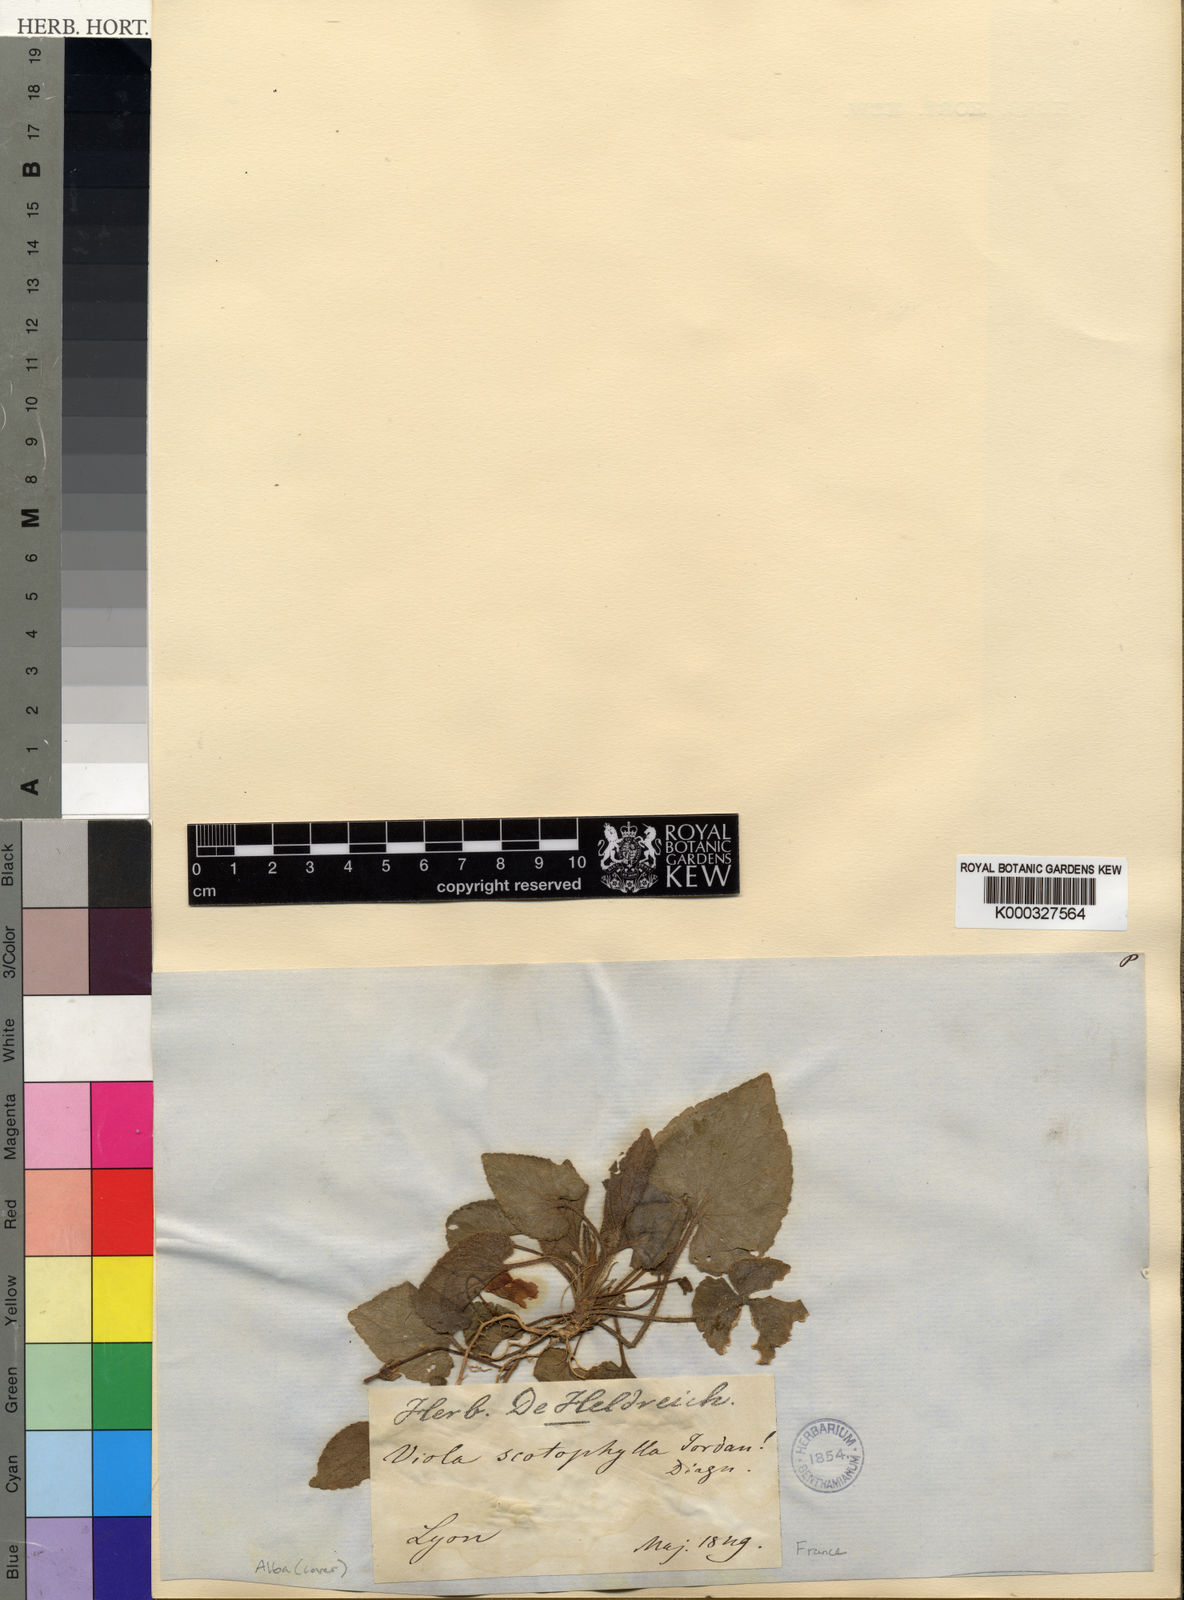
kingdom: Plantae
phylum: Tracheophyta
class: Magnoliopsida
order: Malpighiales
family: Violaceae
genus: Viola
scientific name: Viola alba
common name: White violet
